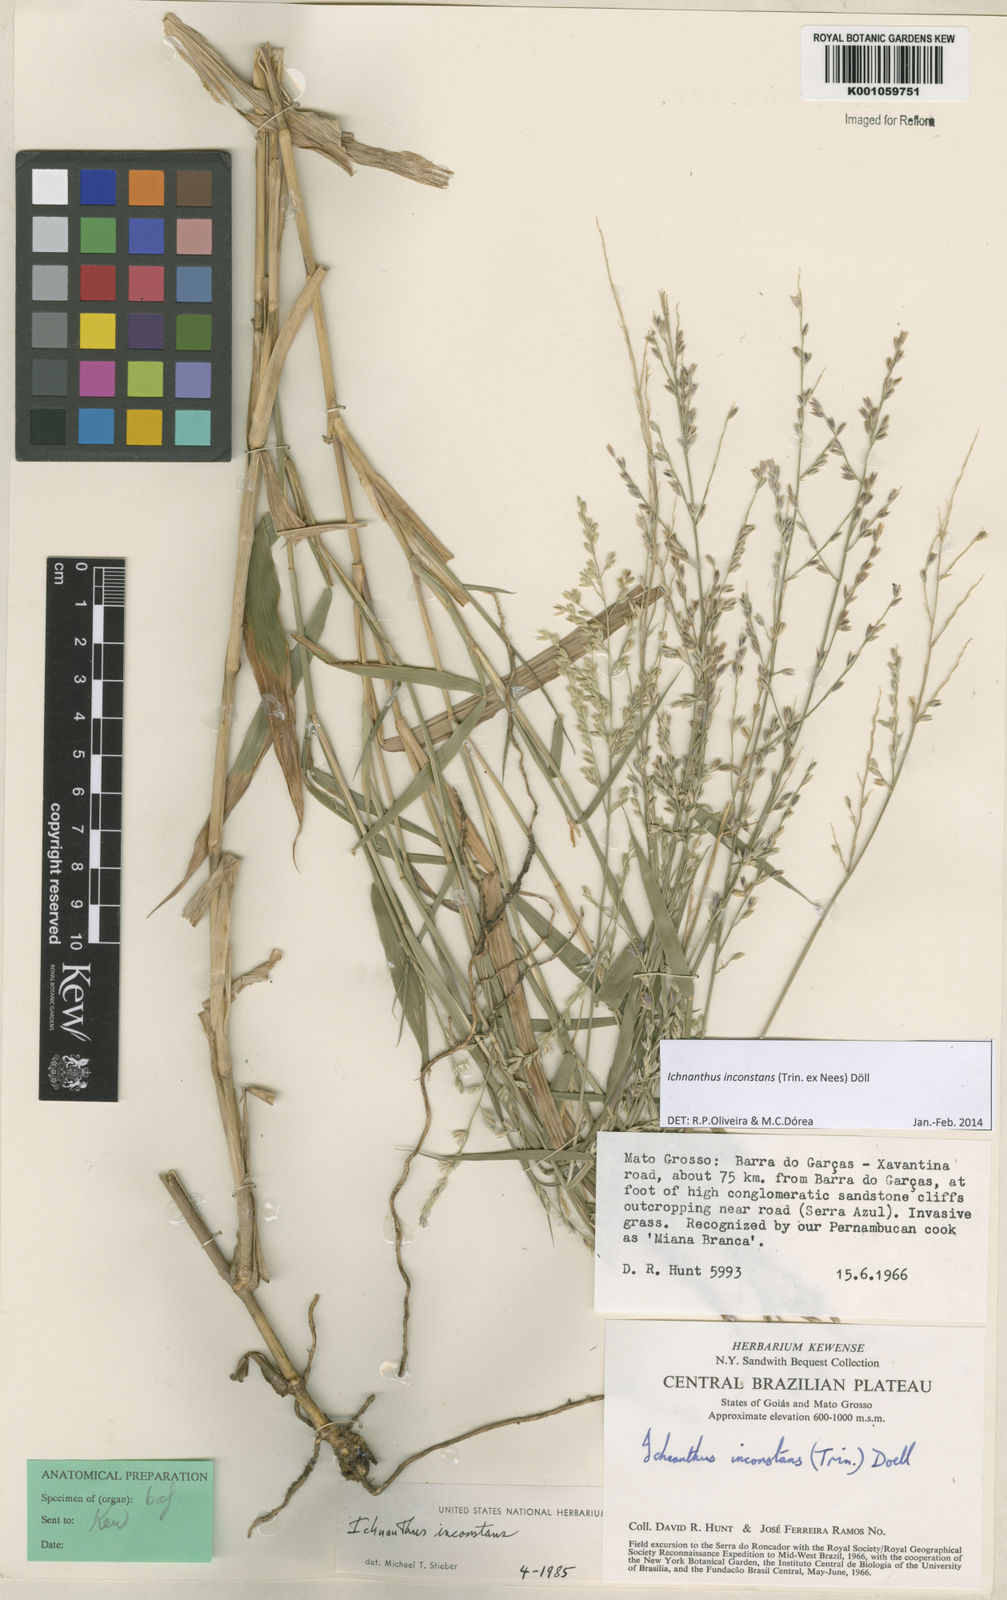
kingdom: Plantae
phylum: Tracheophyta
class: Liliopsida
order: Poales
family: Poaceae
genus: Ichnanthus
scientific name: Ichnanthus
